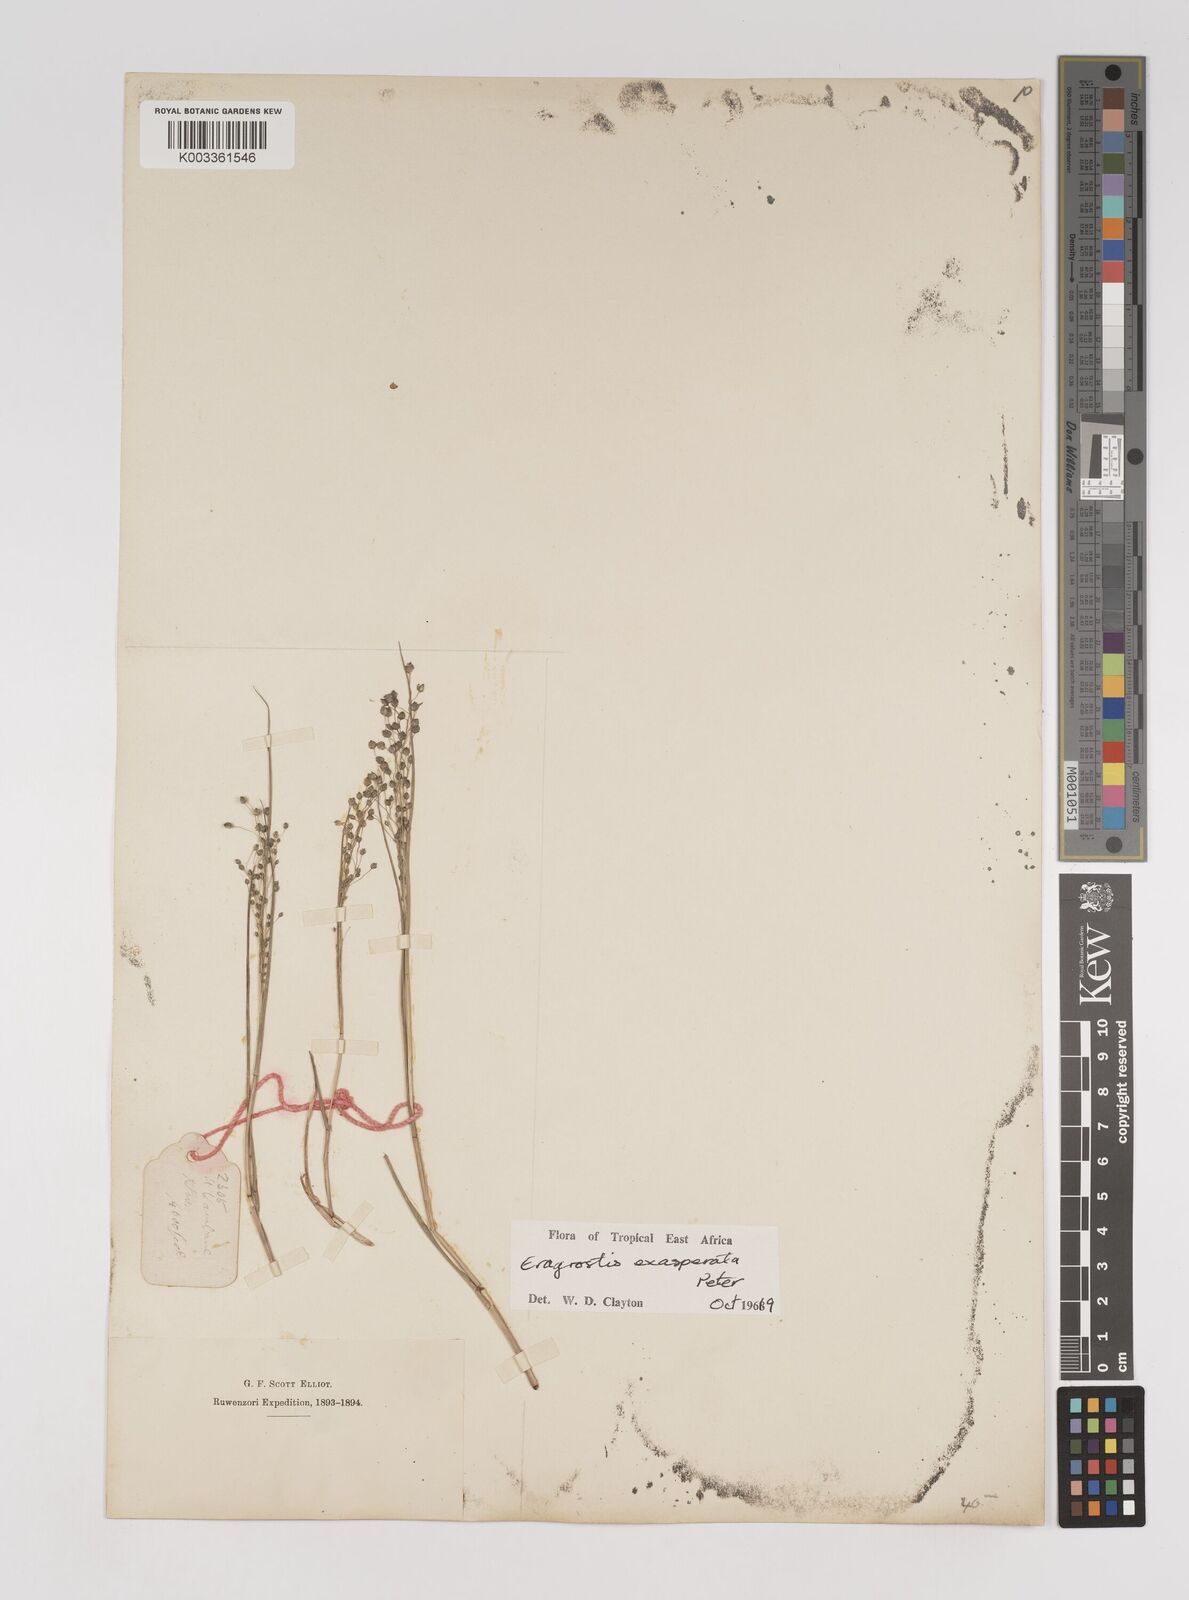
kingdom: Plantae
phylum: Tracheophyta
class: Liliopsida
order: Poales
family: Poaceae
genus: Eragrostis
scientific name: Eragrostis exasperata
